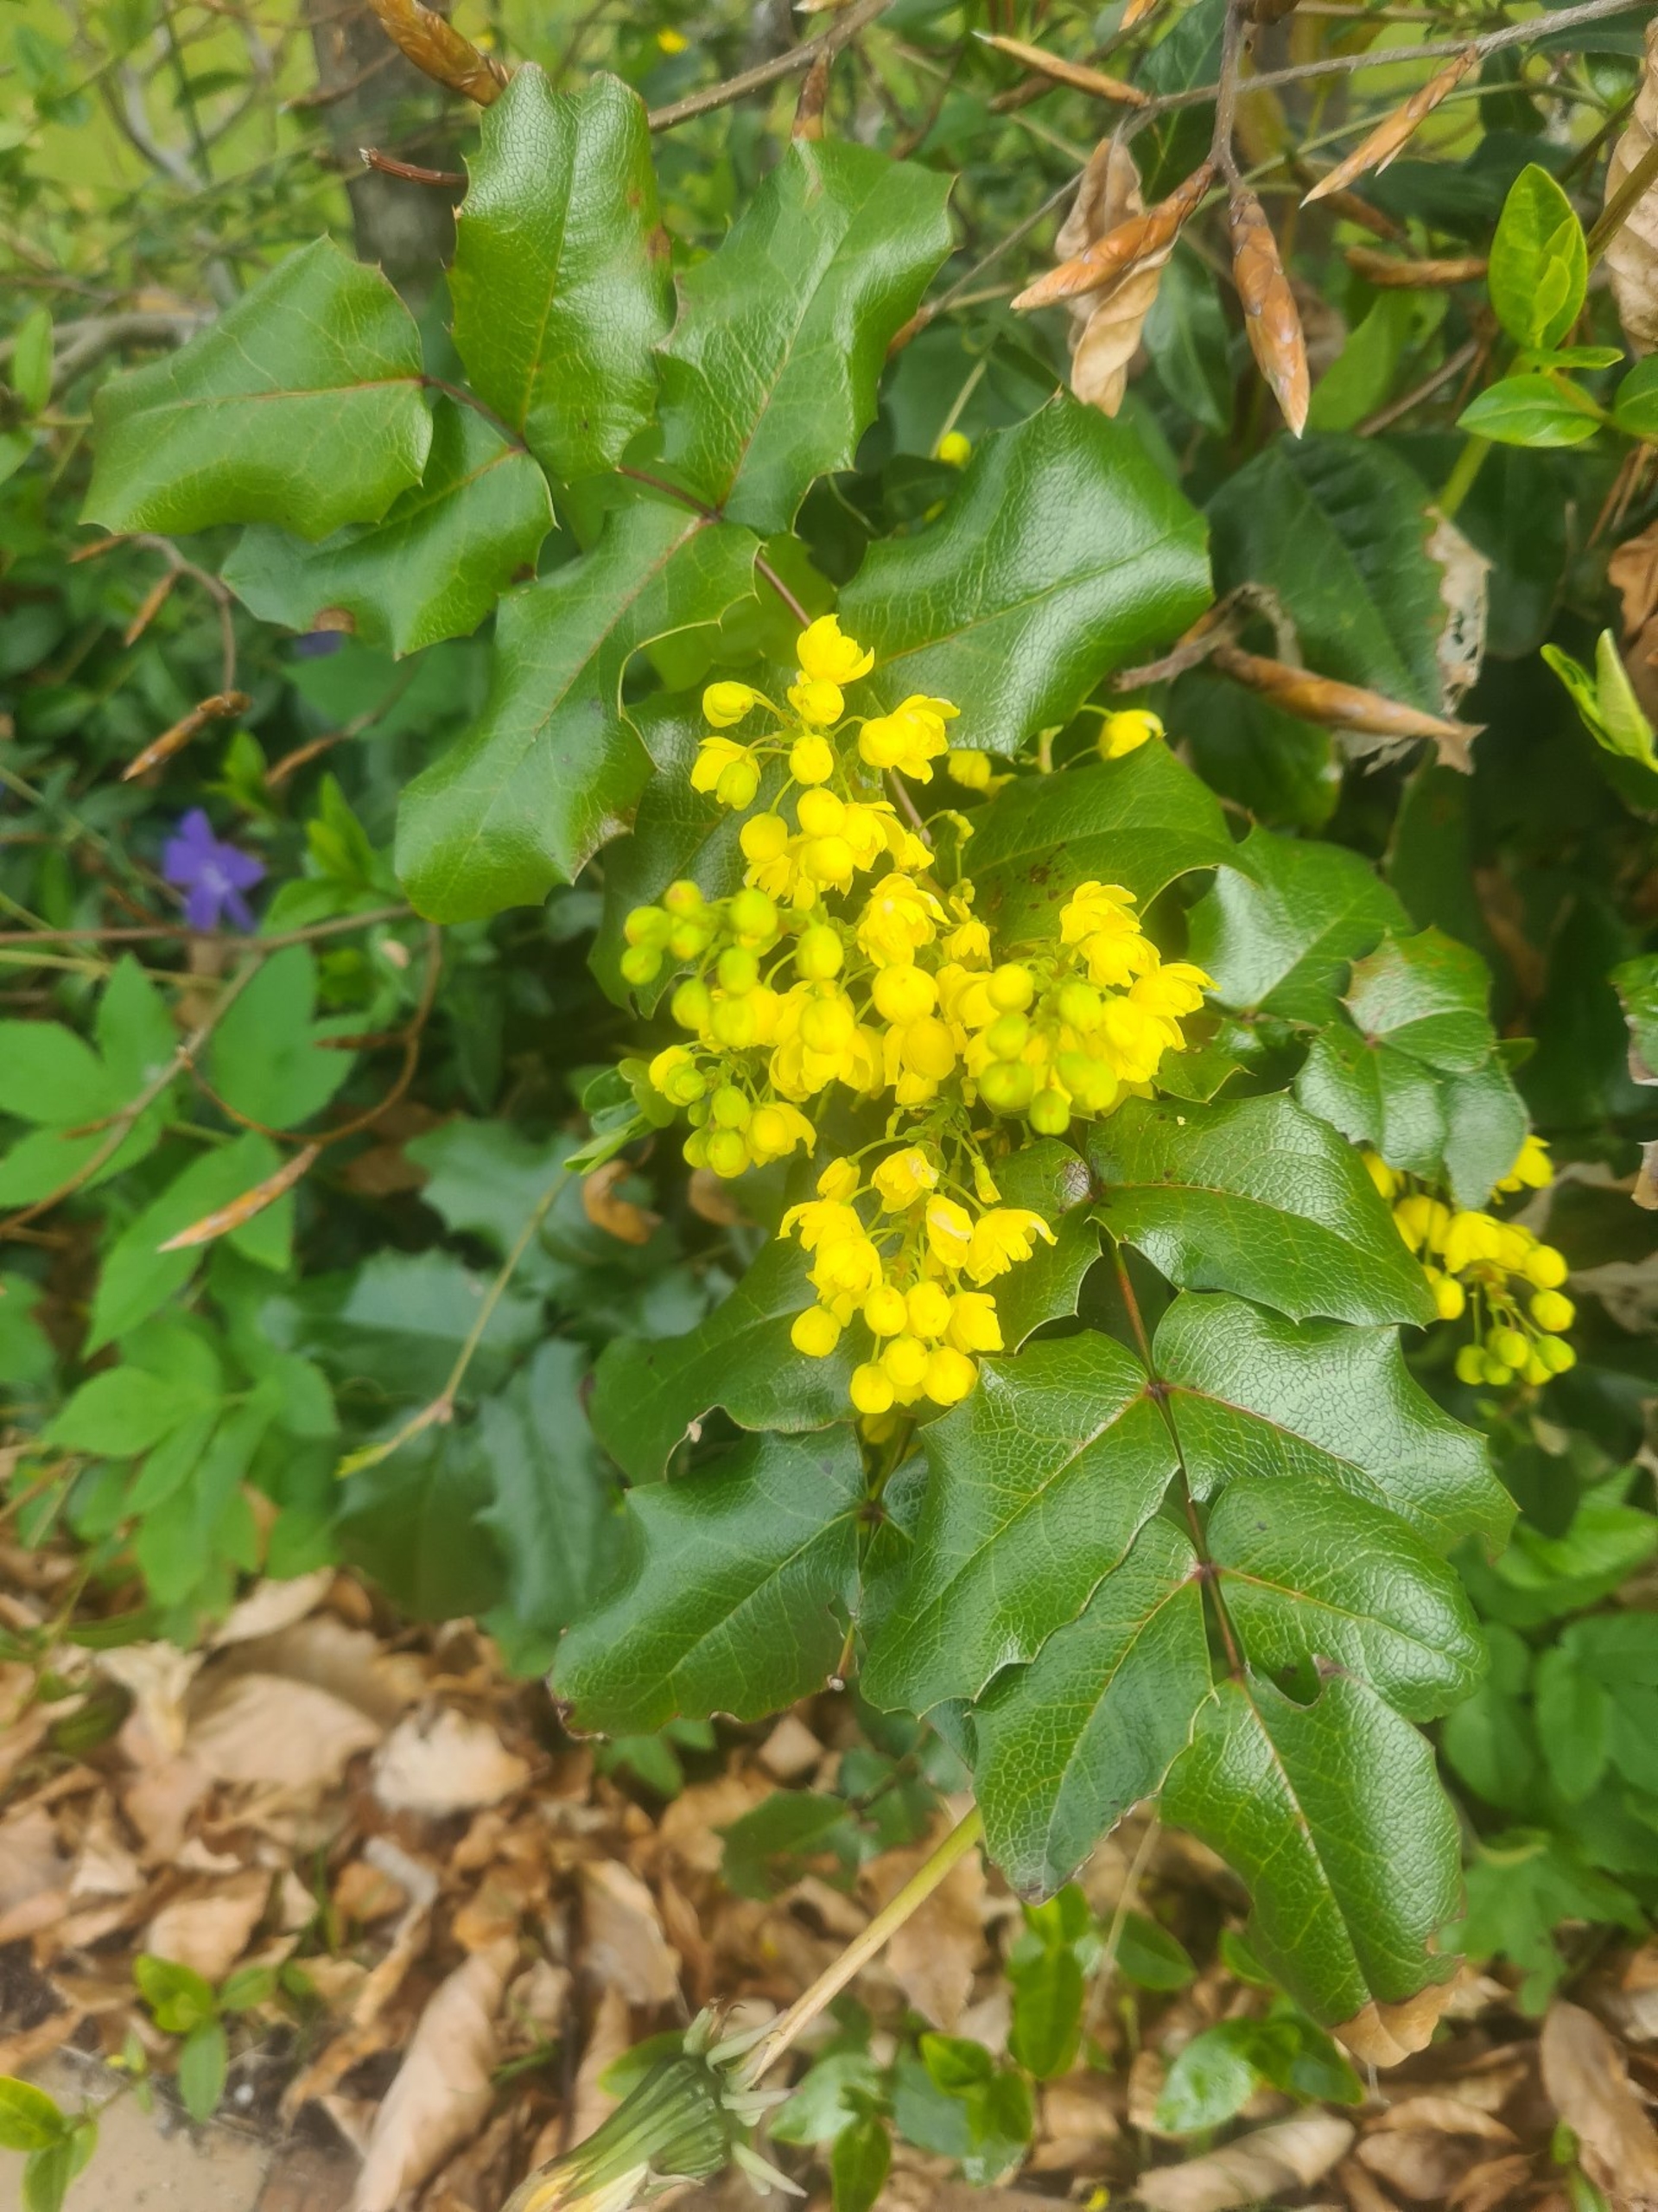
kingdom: Plantae
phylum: Tracheophyta
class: Magnoliopsida
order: Ranunculales
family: Berberidaceae
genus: Mahonia
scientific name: Mahonia aquifolium
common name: Almindelig mahonie
